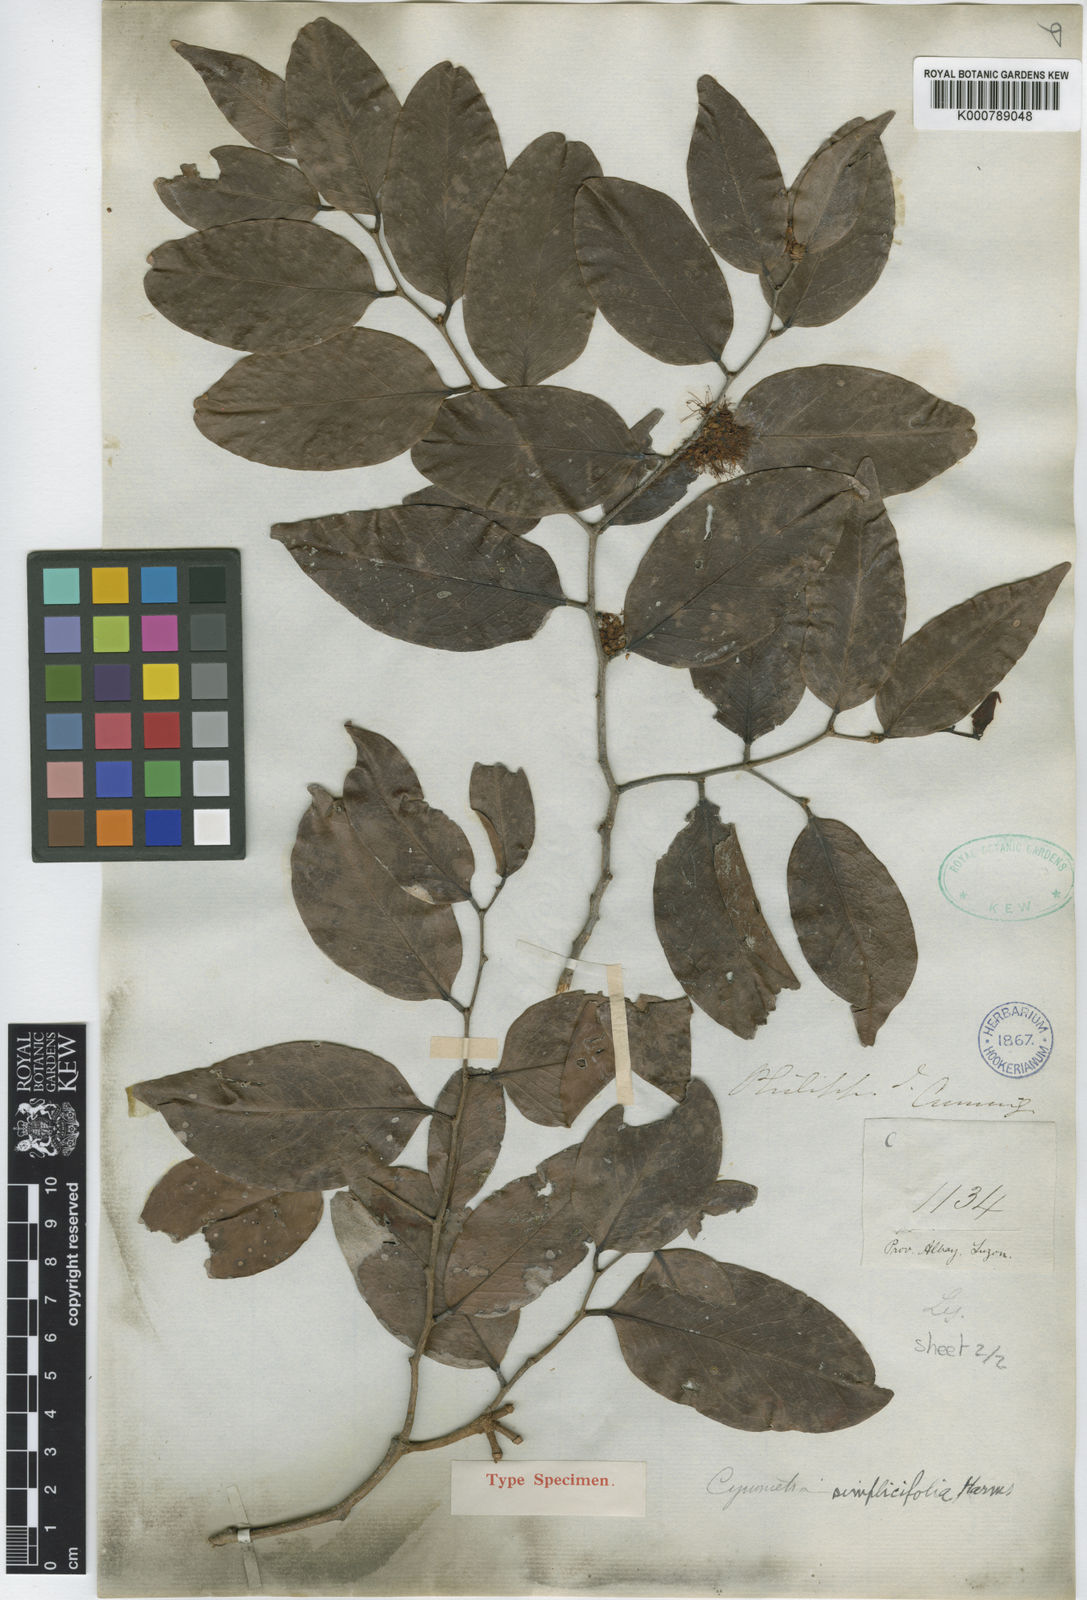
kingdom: Plantae
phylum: Tracheophyta
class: Magnoliopsida
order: Fabales
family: Fabaceae
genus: Cynometra
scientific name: Cynometra simplicifolia
